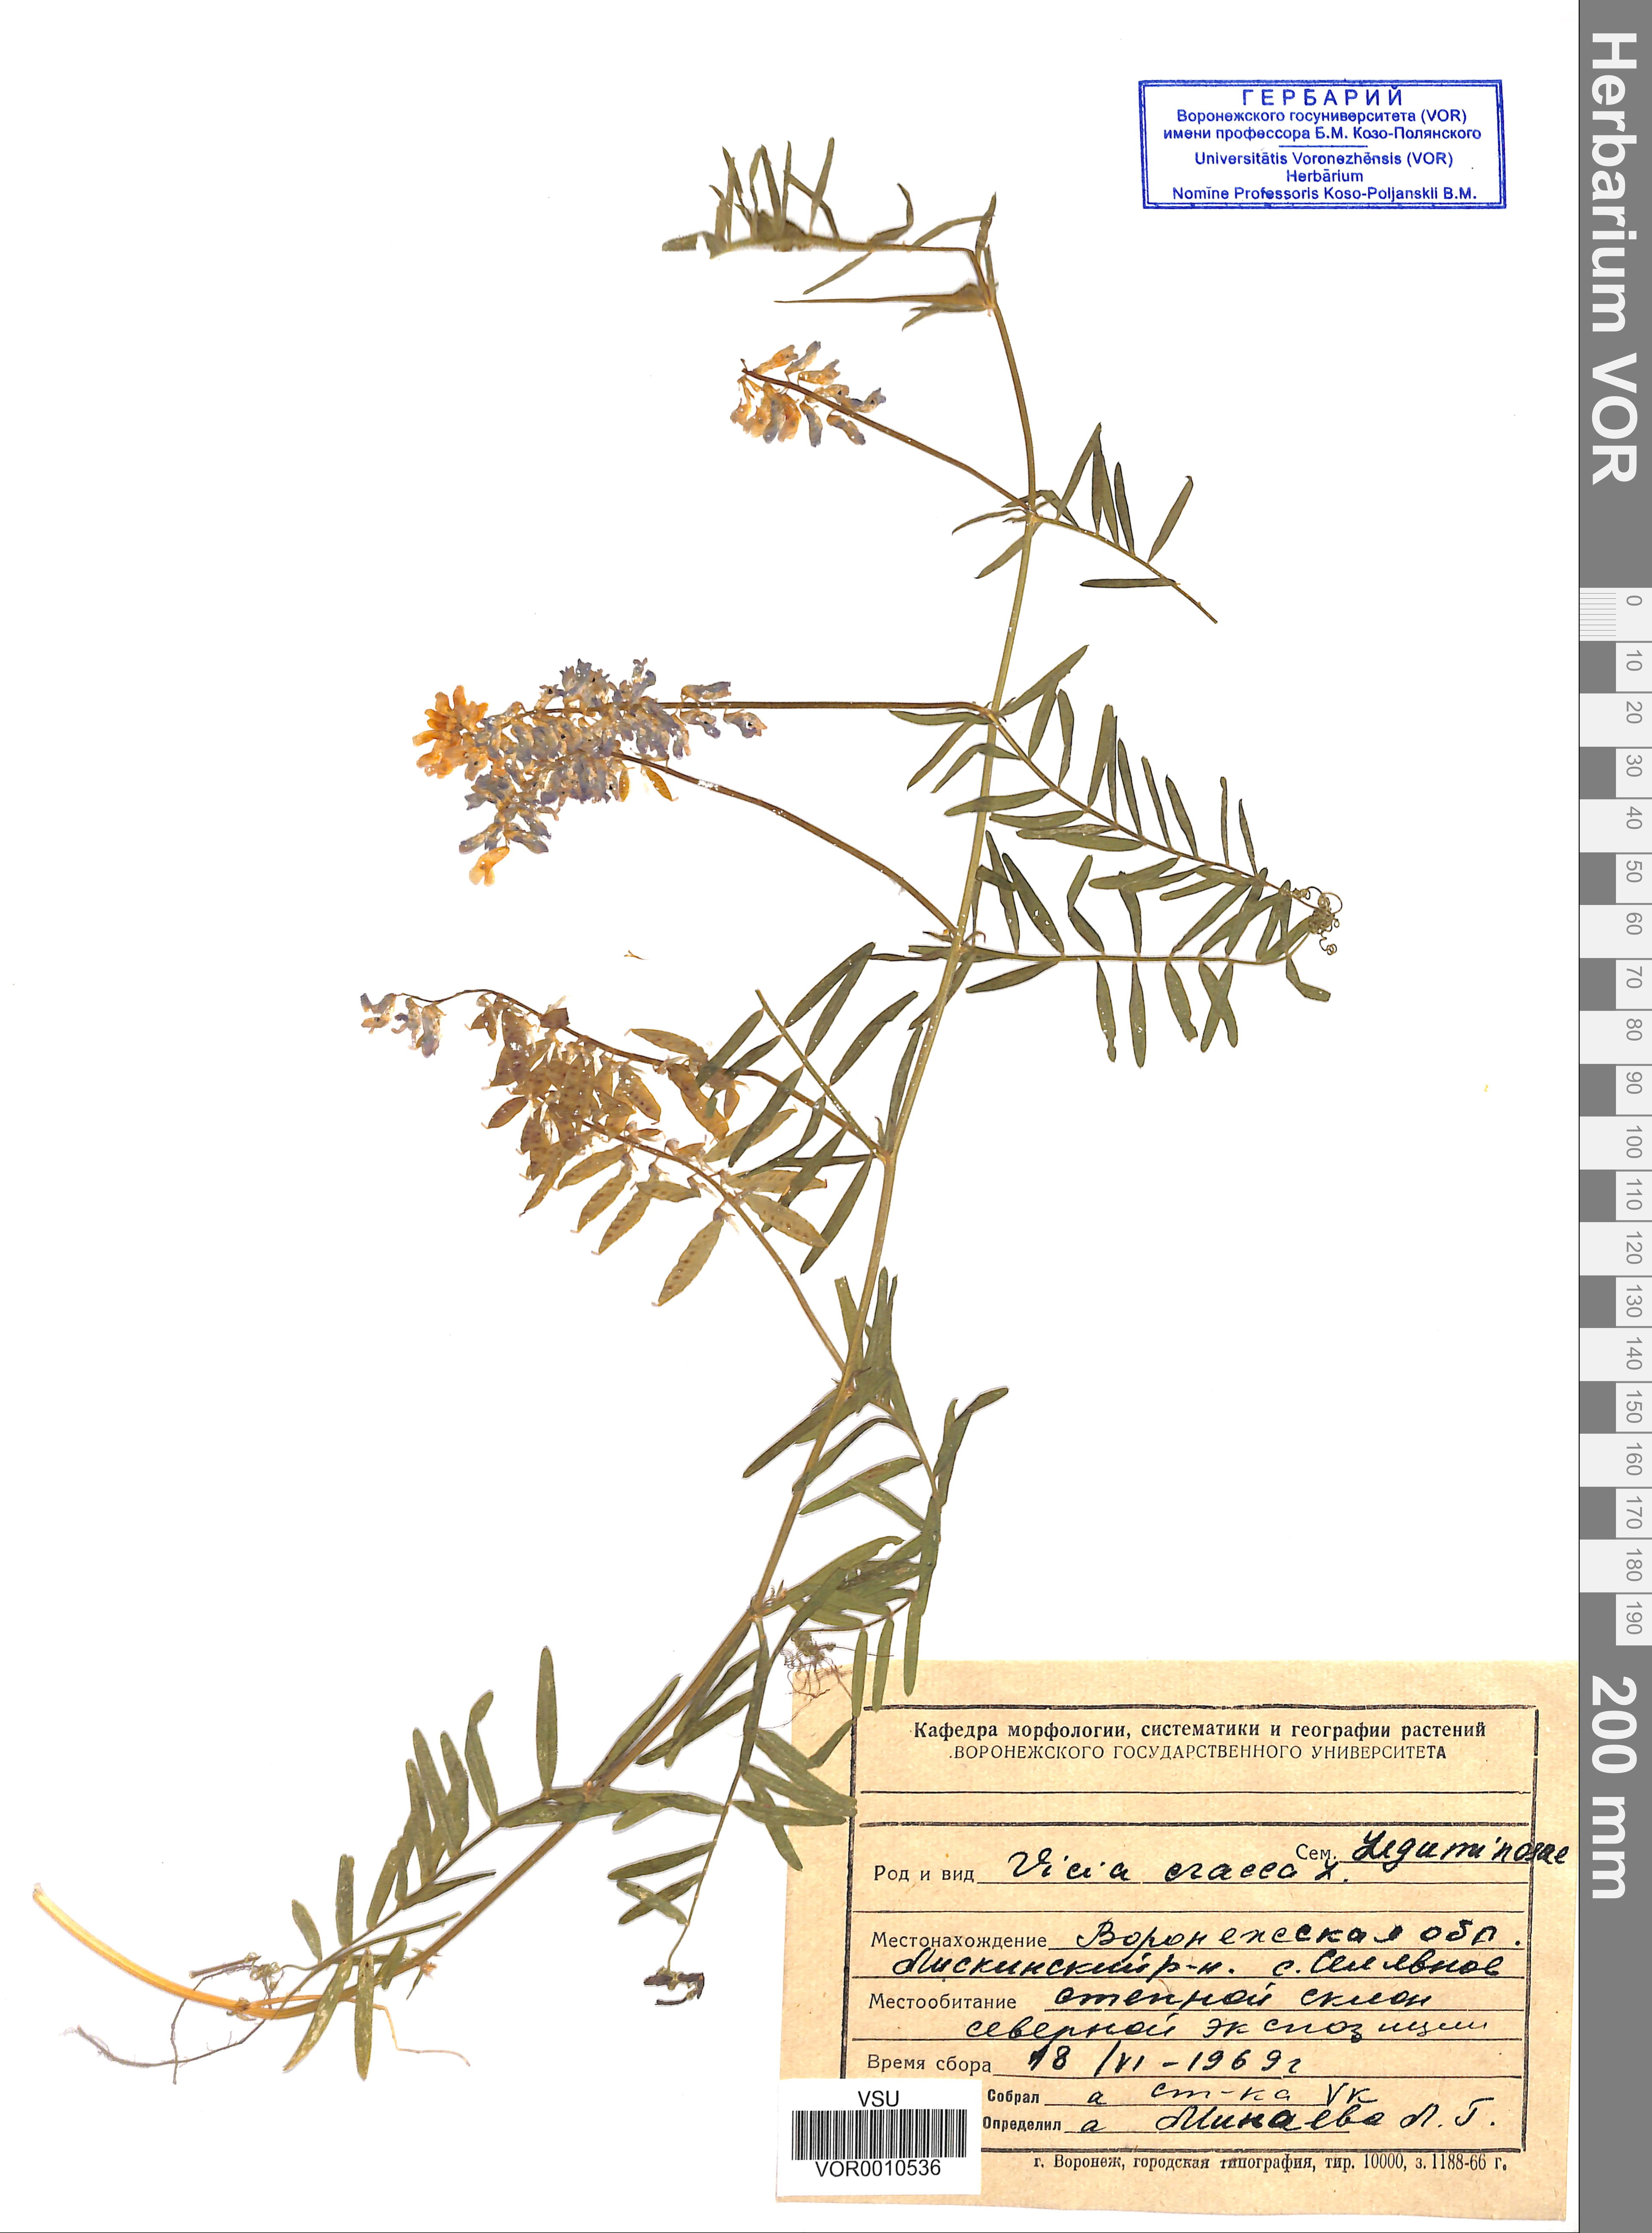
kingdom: Plantae
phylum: Tracheophyta
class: Magnoliopsida
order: Fabales
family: Fabaceae
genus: Vicia
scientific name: Vicia cracca
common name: Bird vetch
